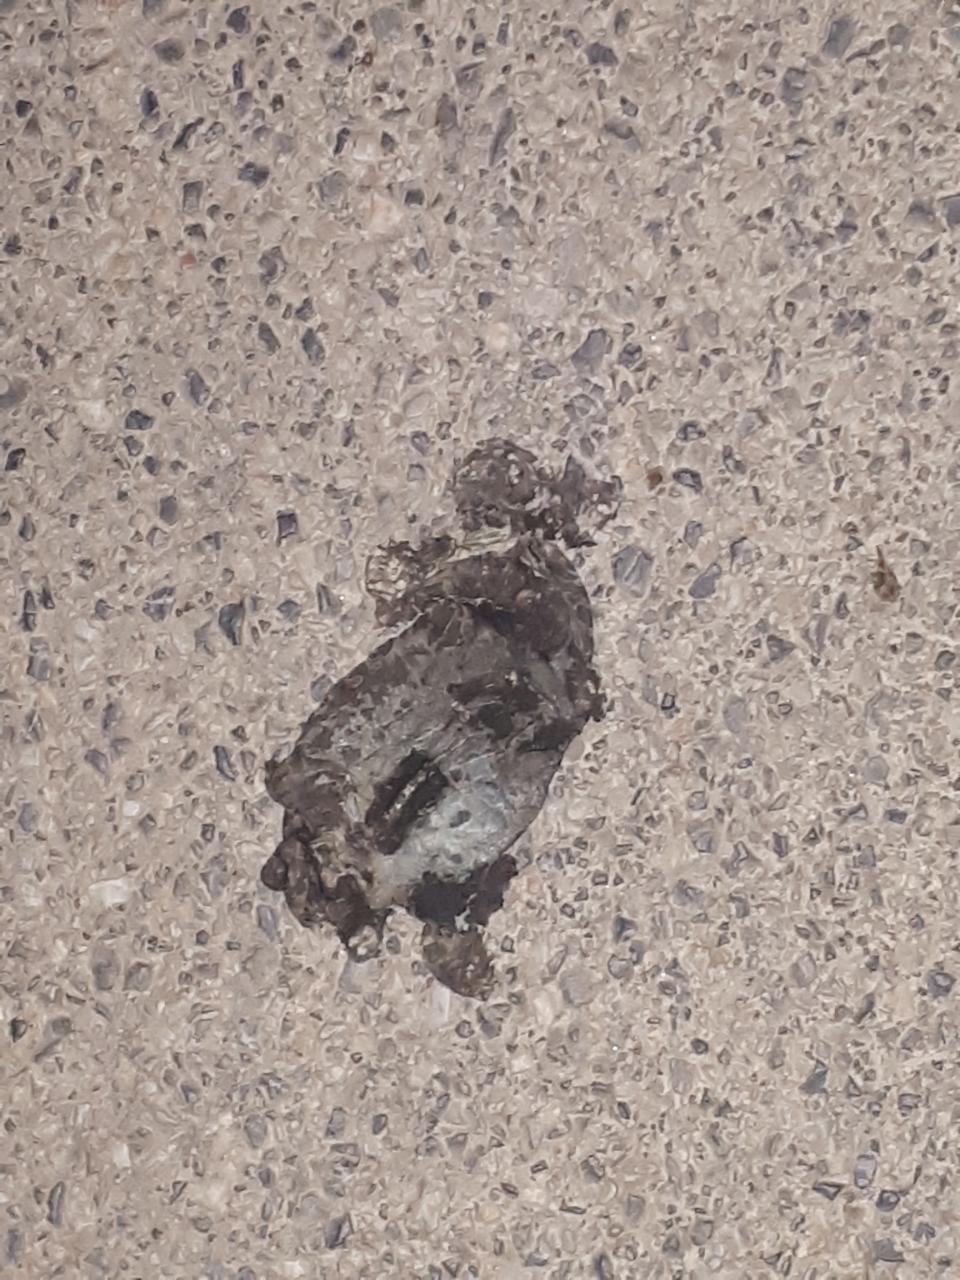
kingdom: Animalia
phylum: Chordata
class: Amphibia
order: Anura
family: Bufonidae
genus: Bufotes
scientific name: Bufotes viridis
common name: European green toad
